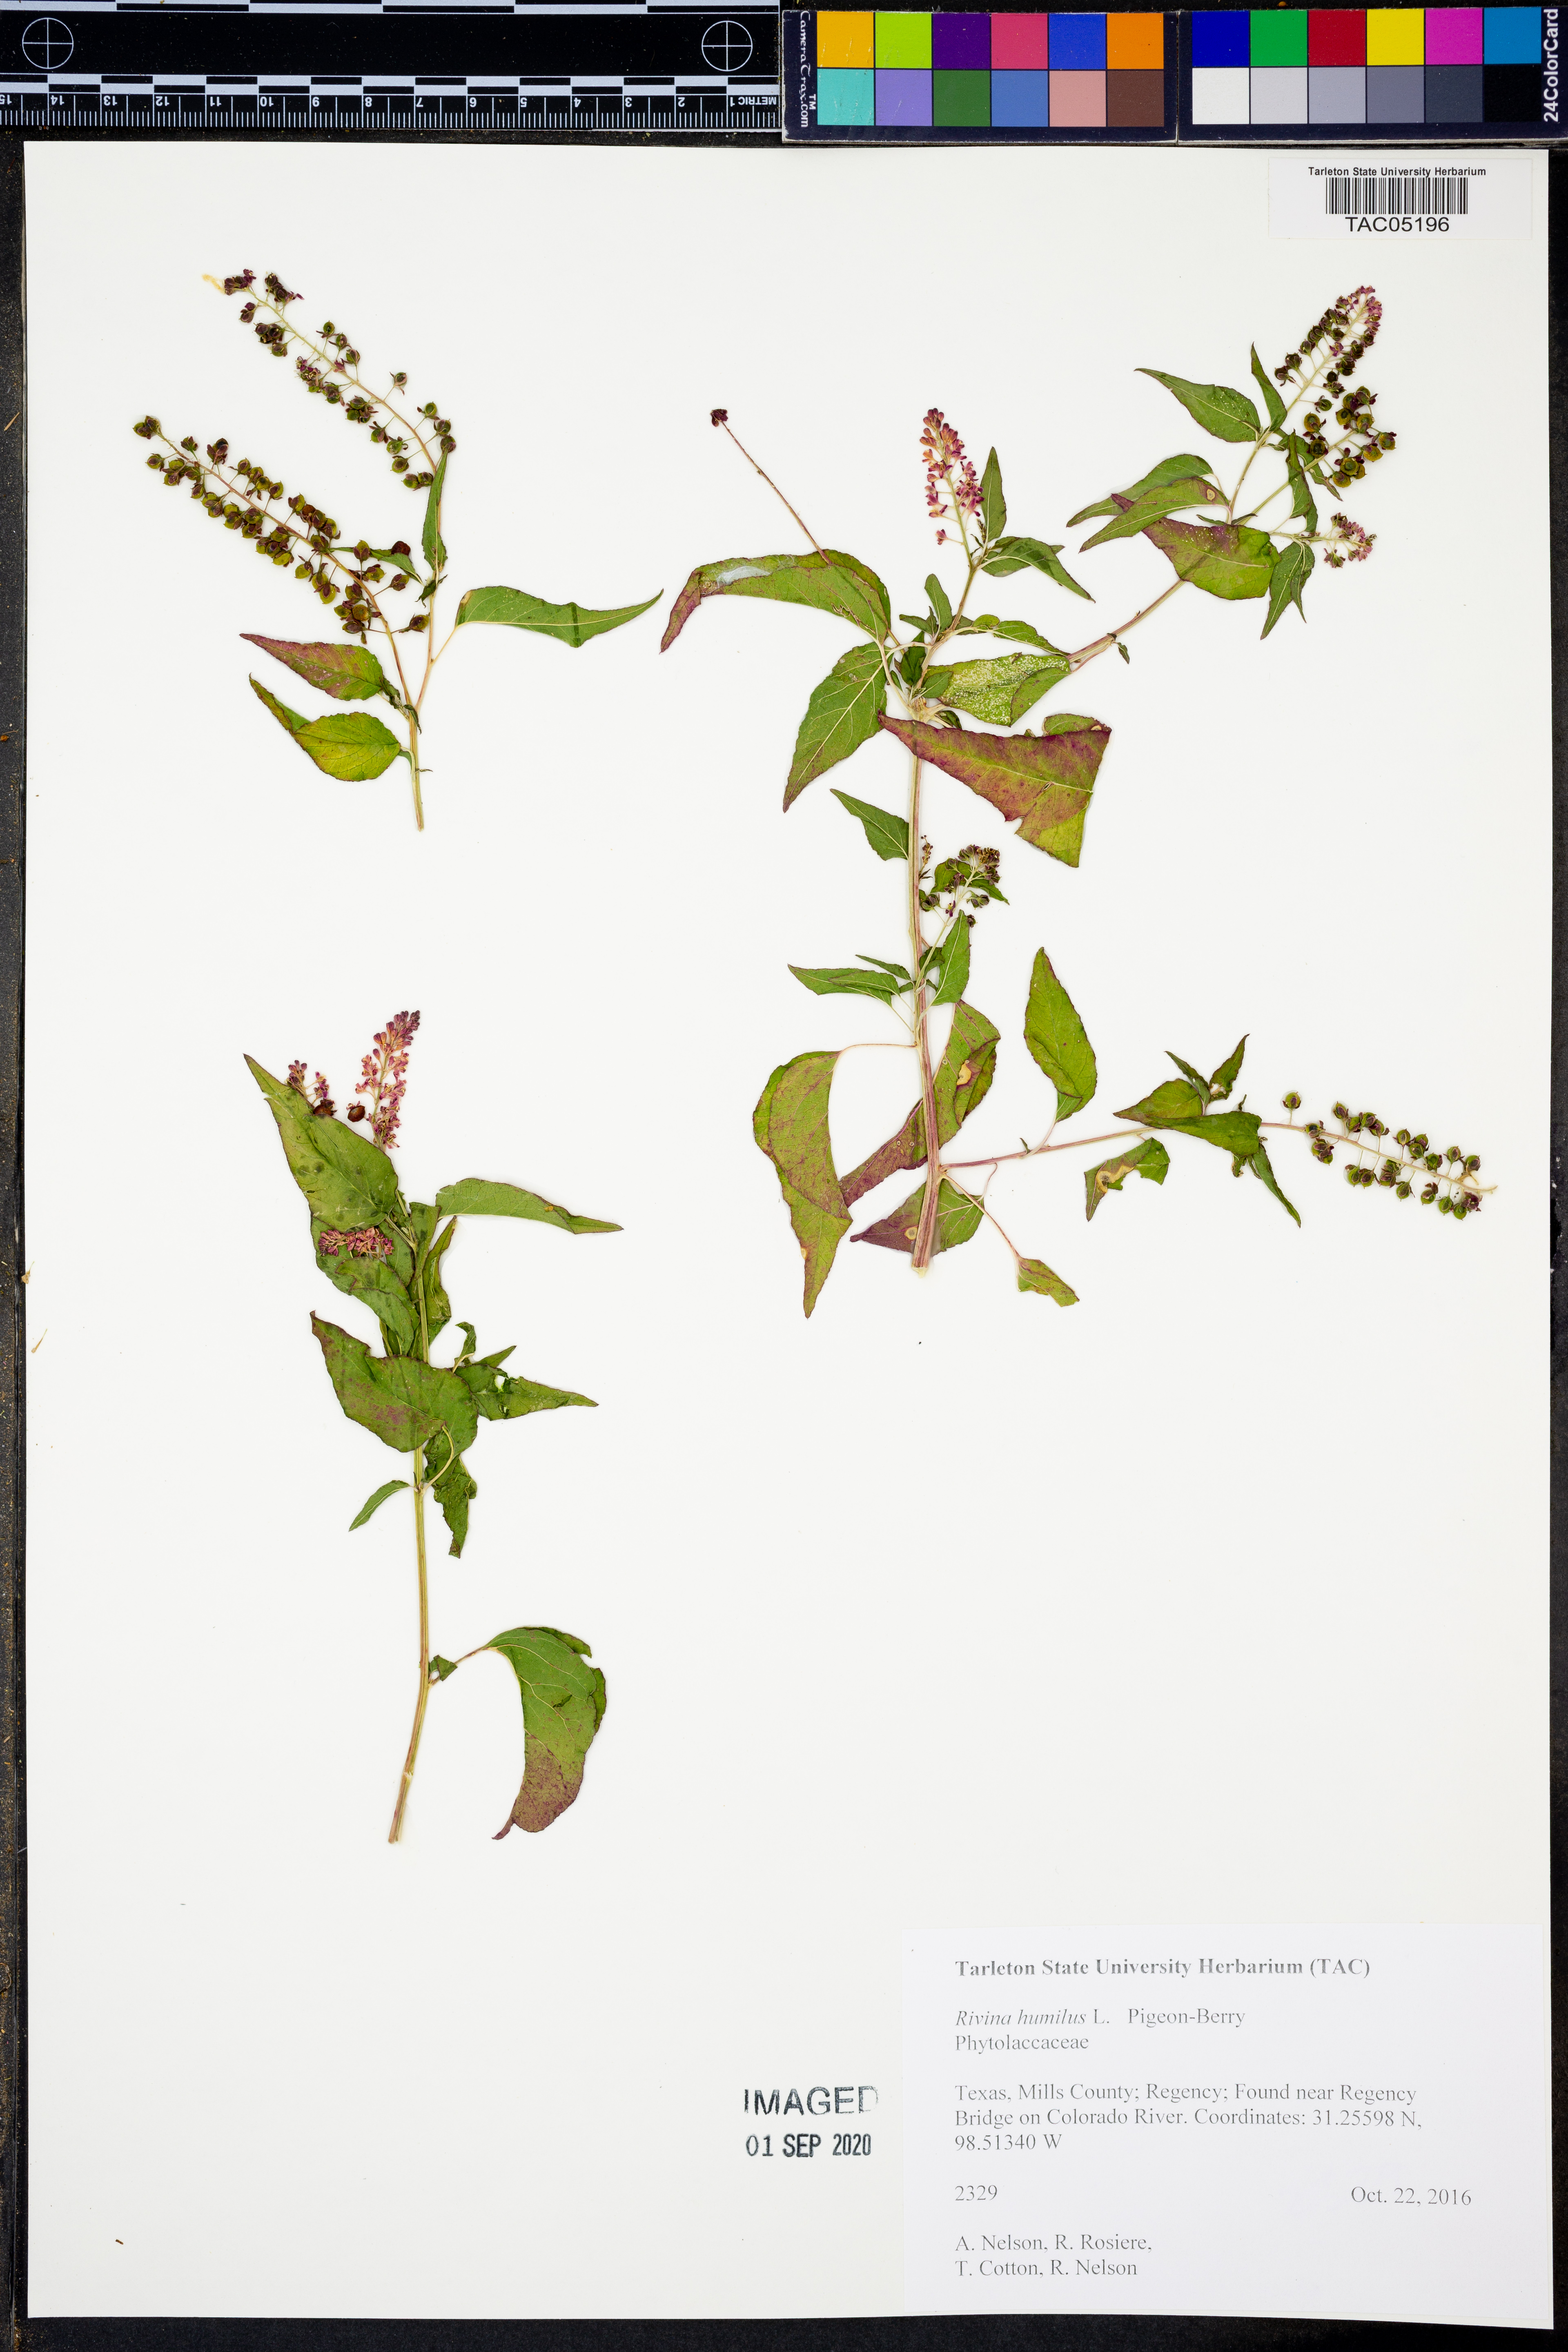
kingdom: Plantae
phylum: Tracheophyta
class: Magnoliopsida
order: Caryophyllales
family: Phytolaccaceae
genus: Rivina
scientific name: Rivina humilis
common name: Rougeplant
